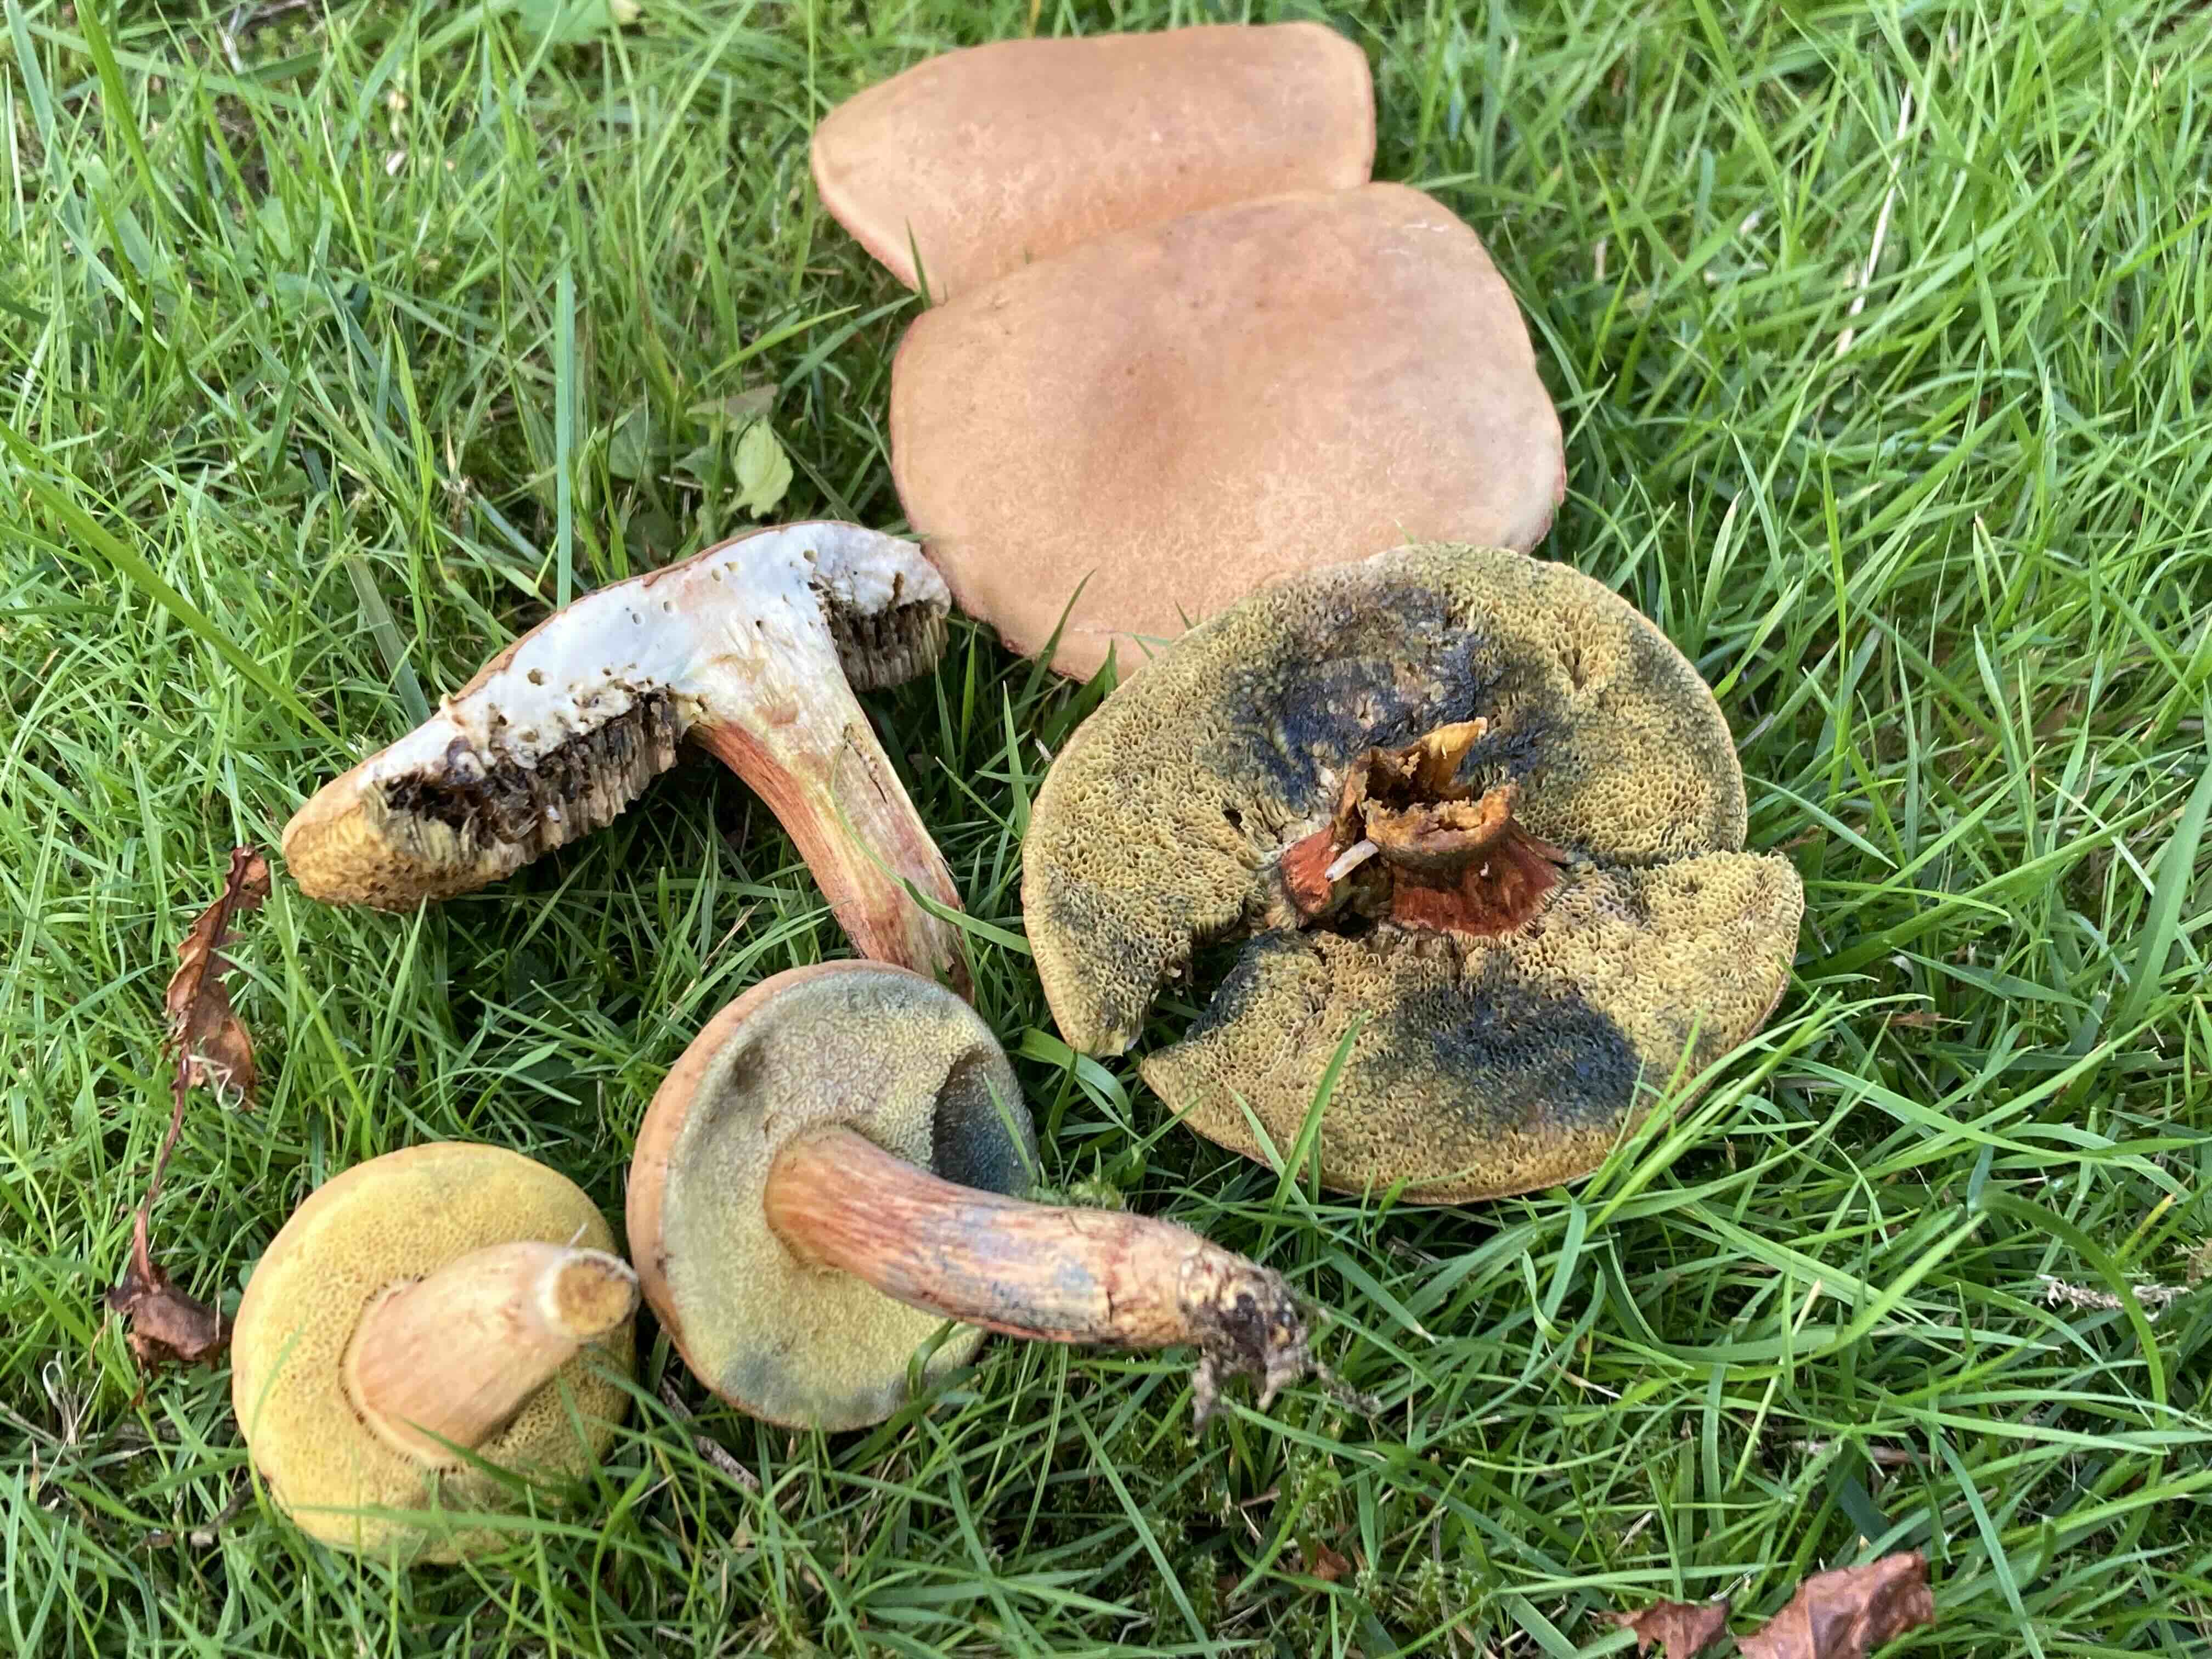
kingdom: Fungi
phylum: Basidiomycota
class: Agaricomycetes
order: Boletales
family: Boletaceae
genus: Hortiboletus
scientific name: Hortiboletus bubalinus
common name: aurora-rørhat
